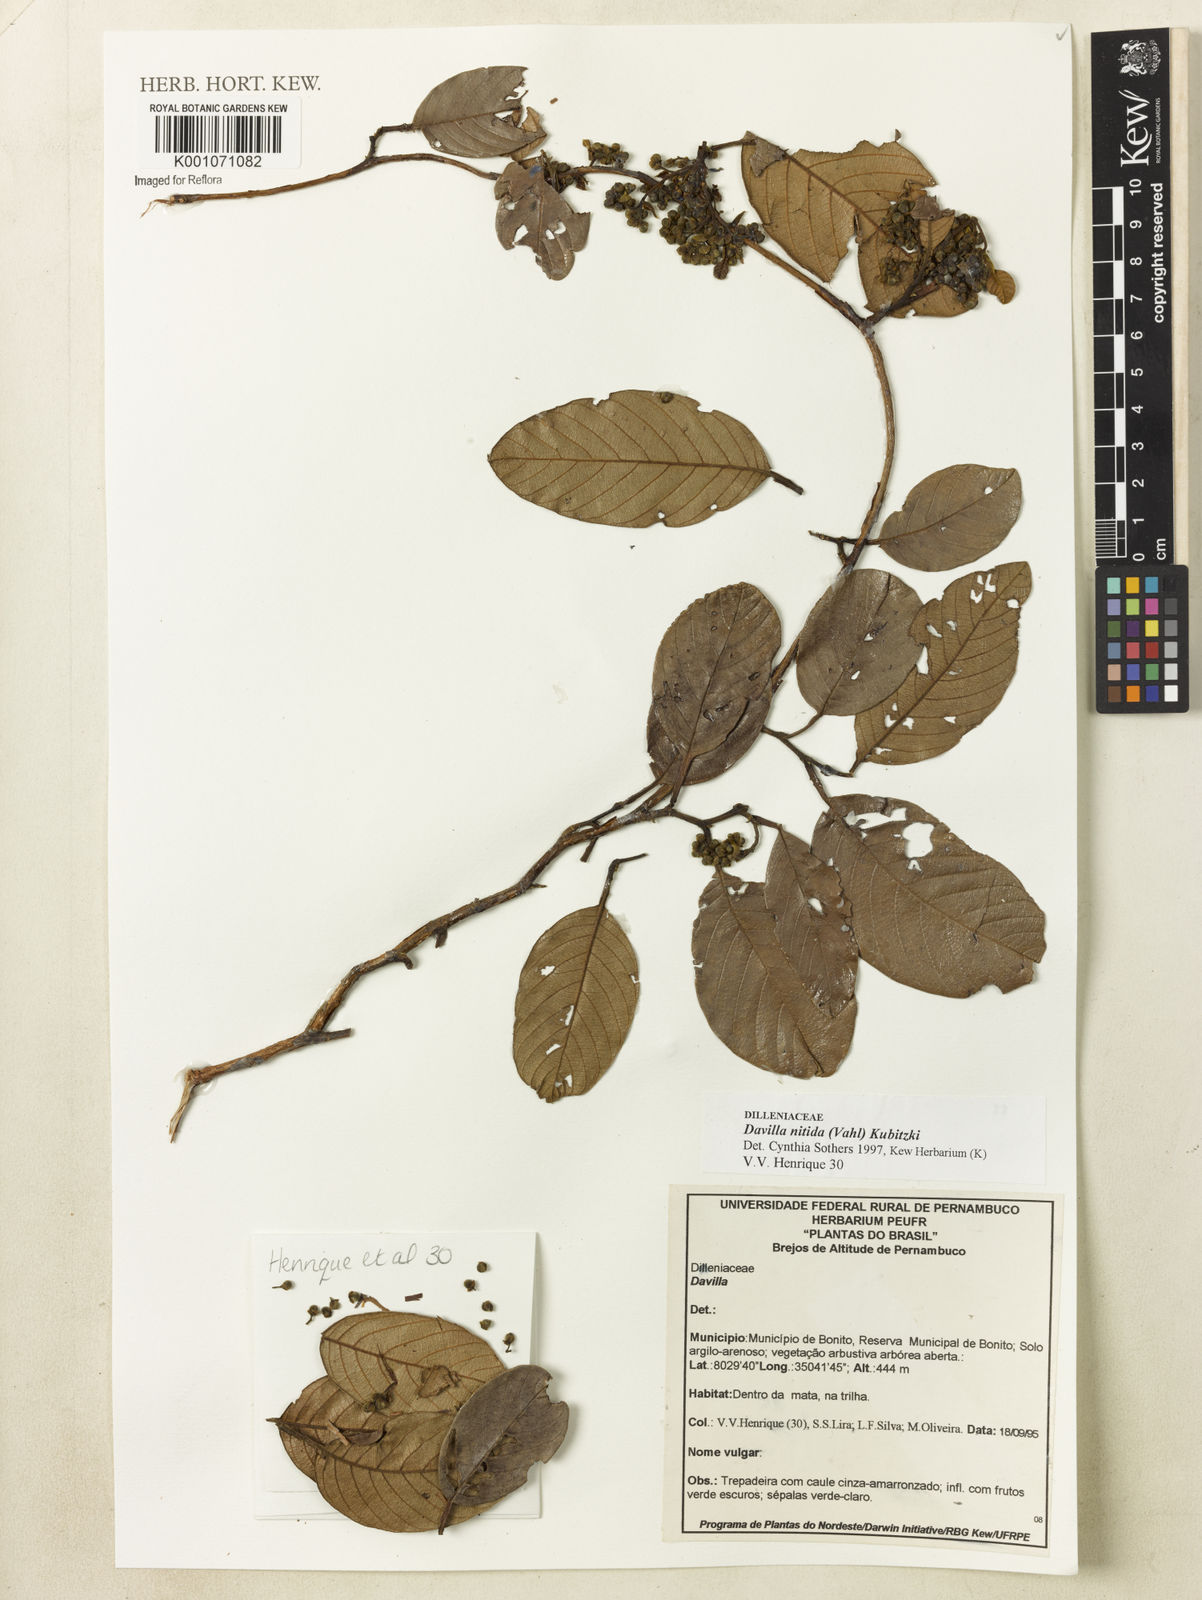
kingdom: Plantae
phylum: Tracheophyta
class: Magnoliopsida
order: Dilleniales
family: Dilleniaceae
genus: Davilla
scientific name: Davilla nitida
